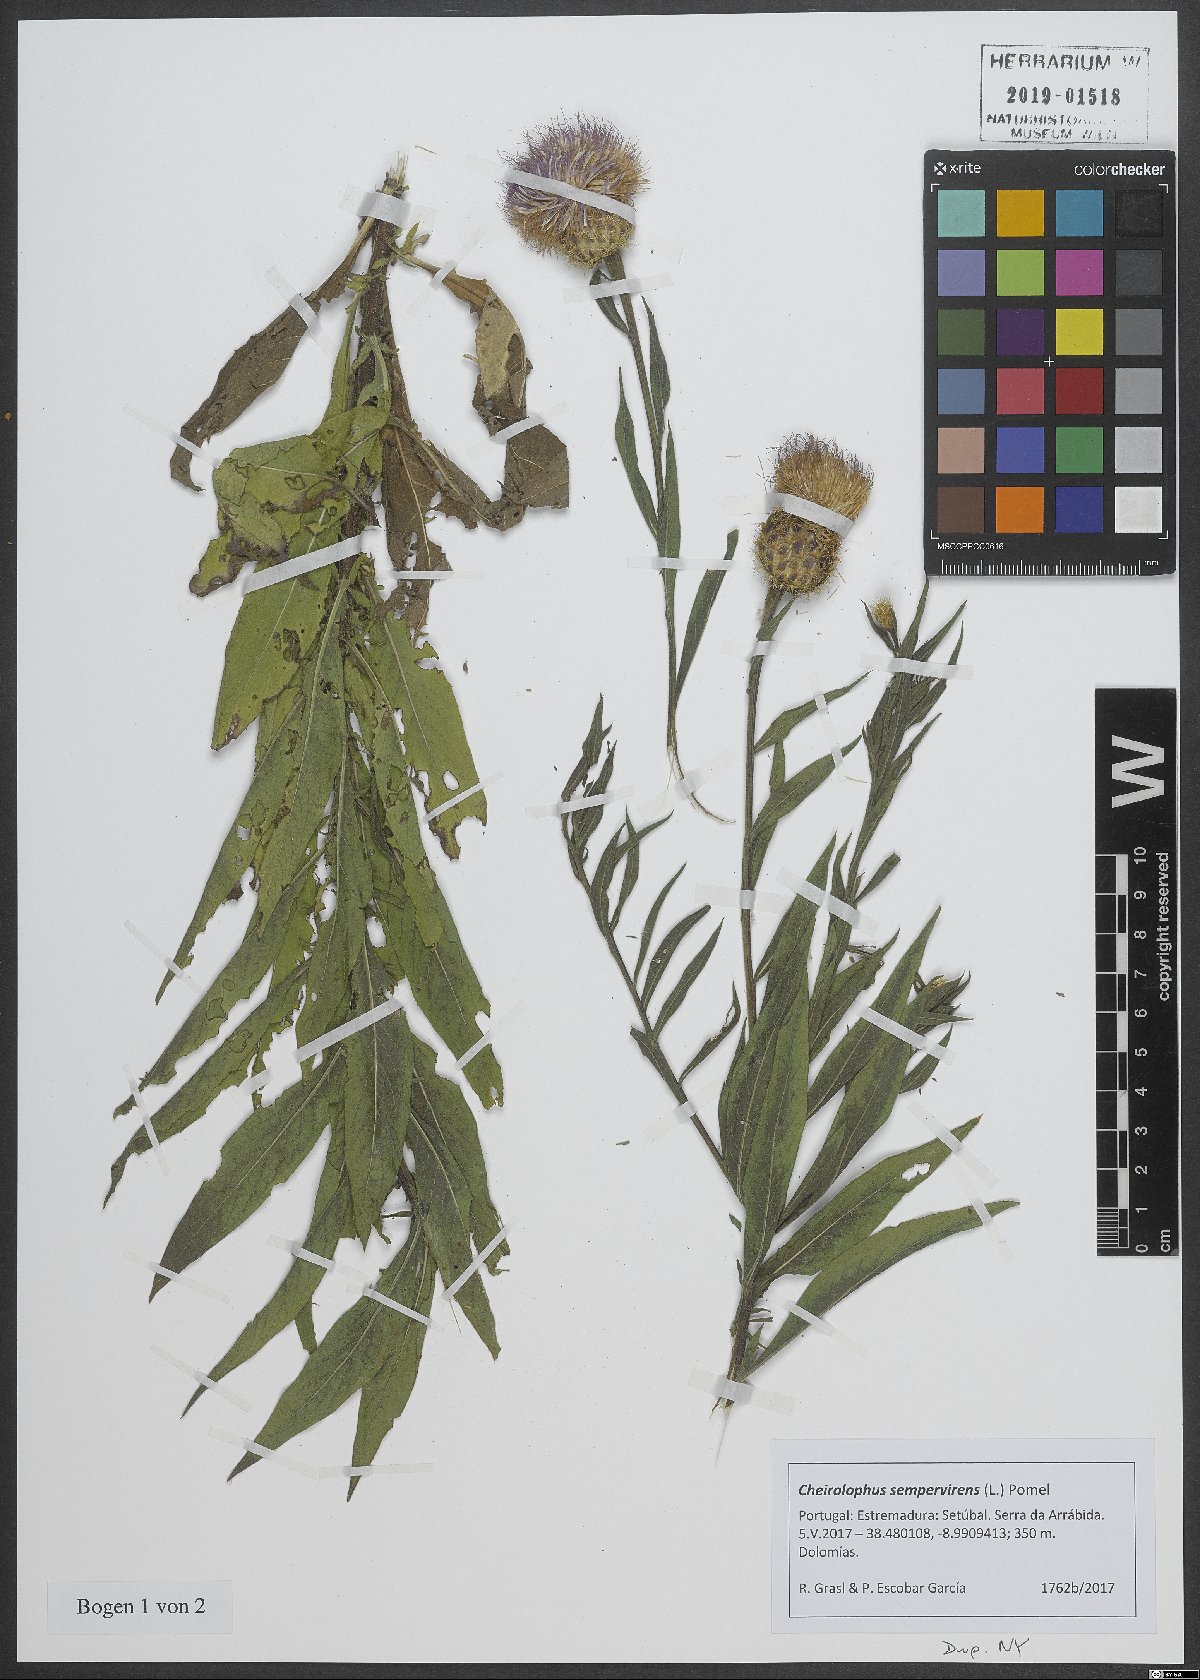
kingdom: Plantae
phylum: Tracheophyta
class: Magnoliopsida
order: Asterales
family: Asteraceae
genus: Cheirolophus
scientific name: Cheirolophus sempervirens
